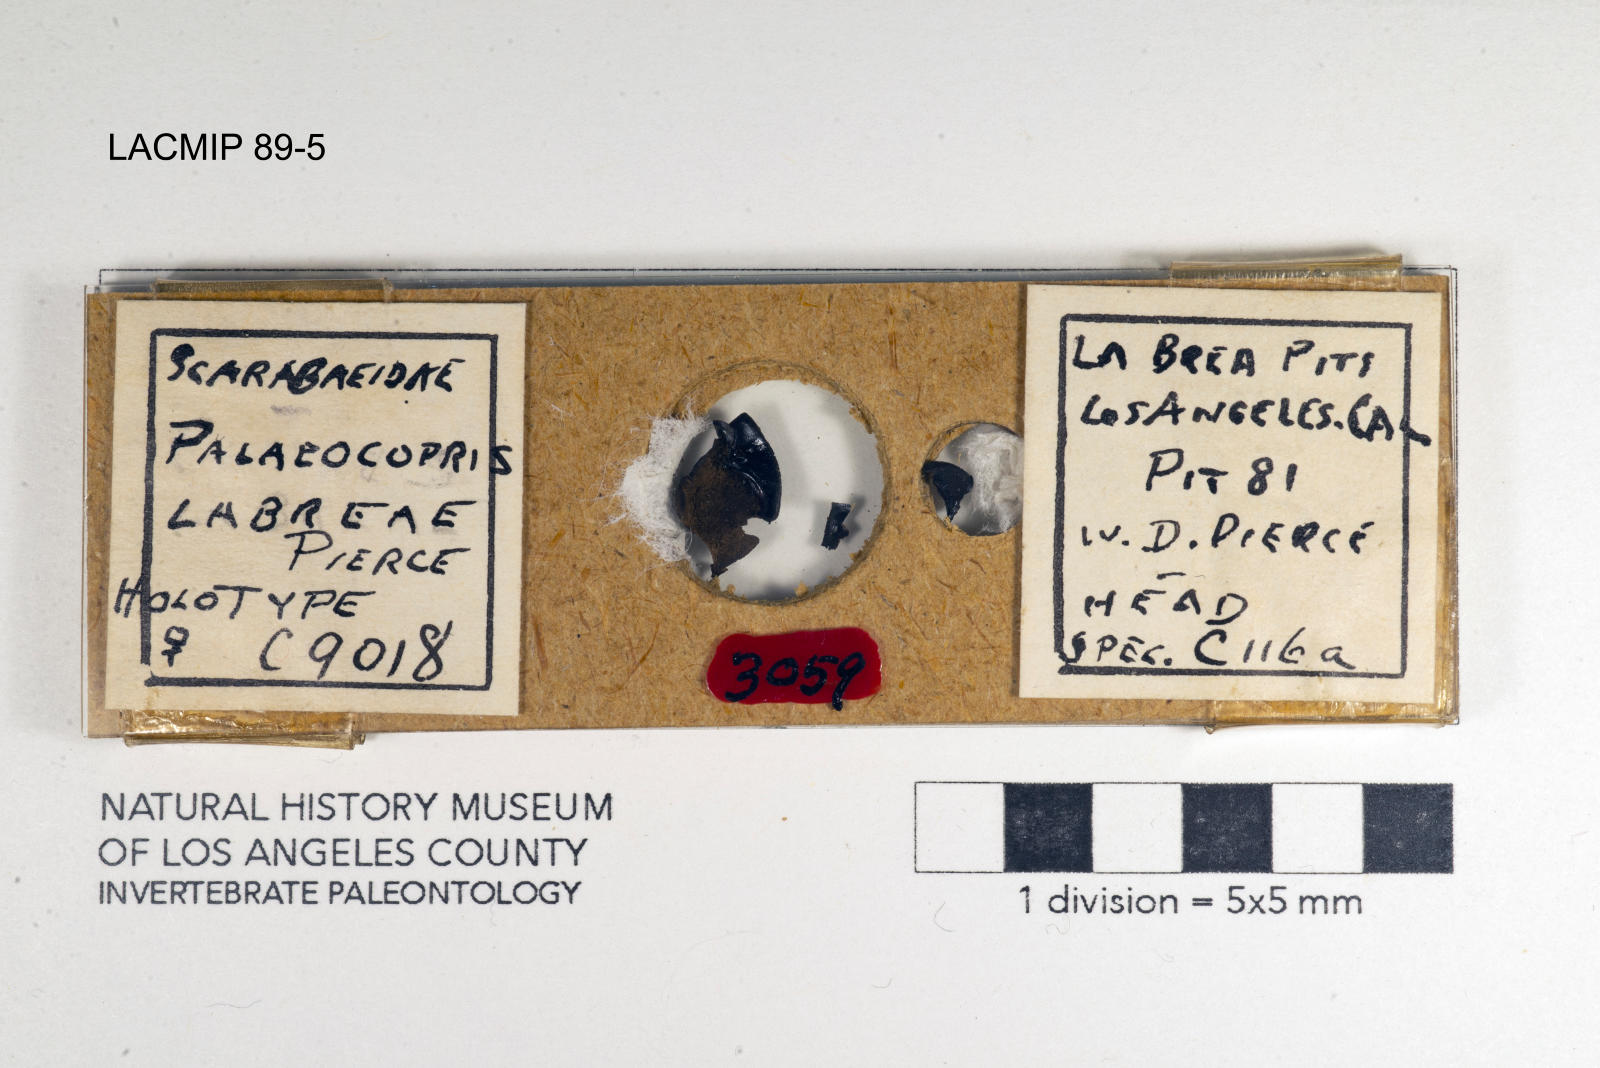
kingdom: Animalia
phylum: Arthropoda
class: Insecta
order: Coleoptera
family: Scarabaeidae
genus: Phanaeus
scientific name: Phanaeus labreae
